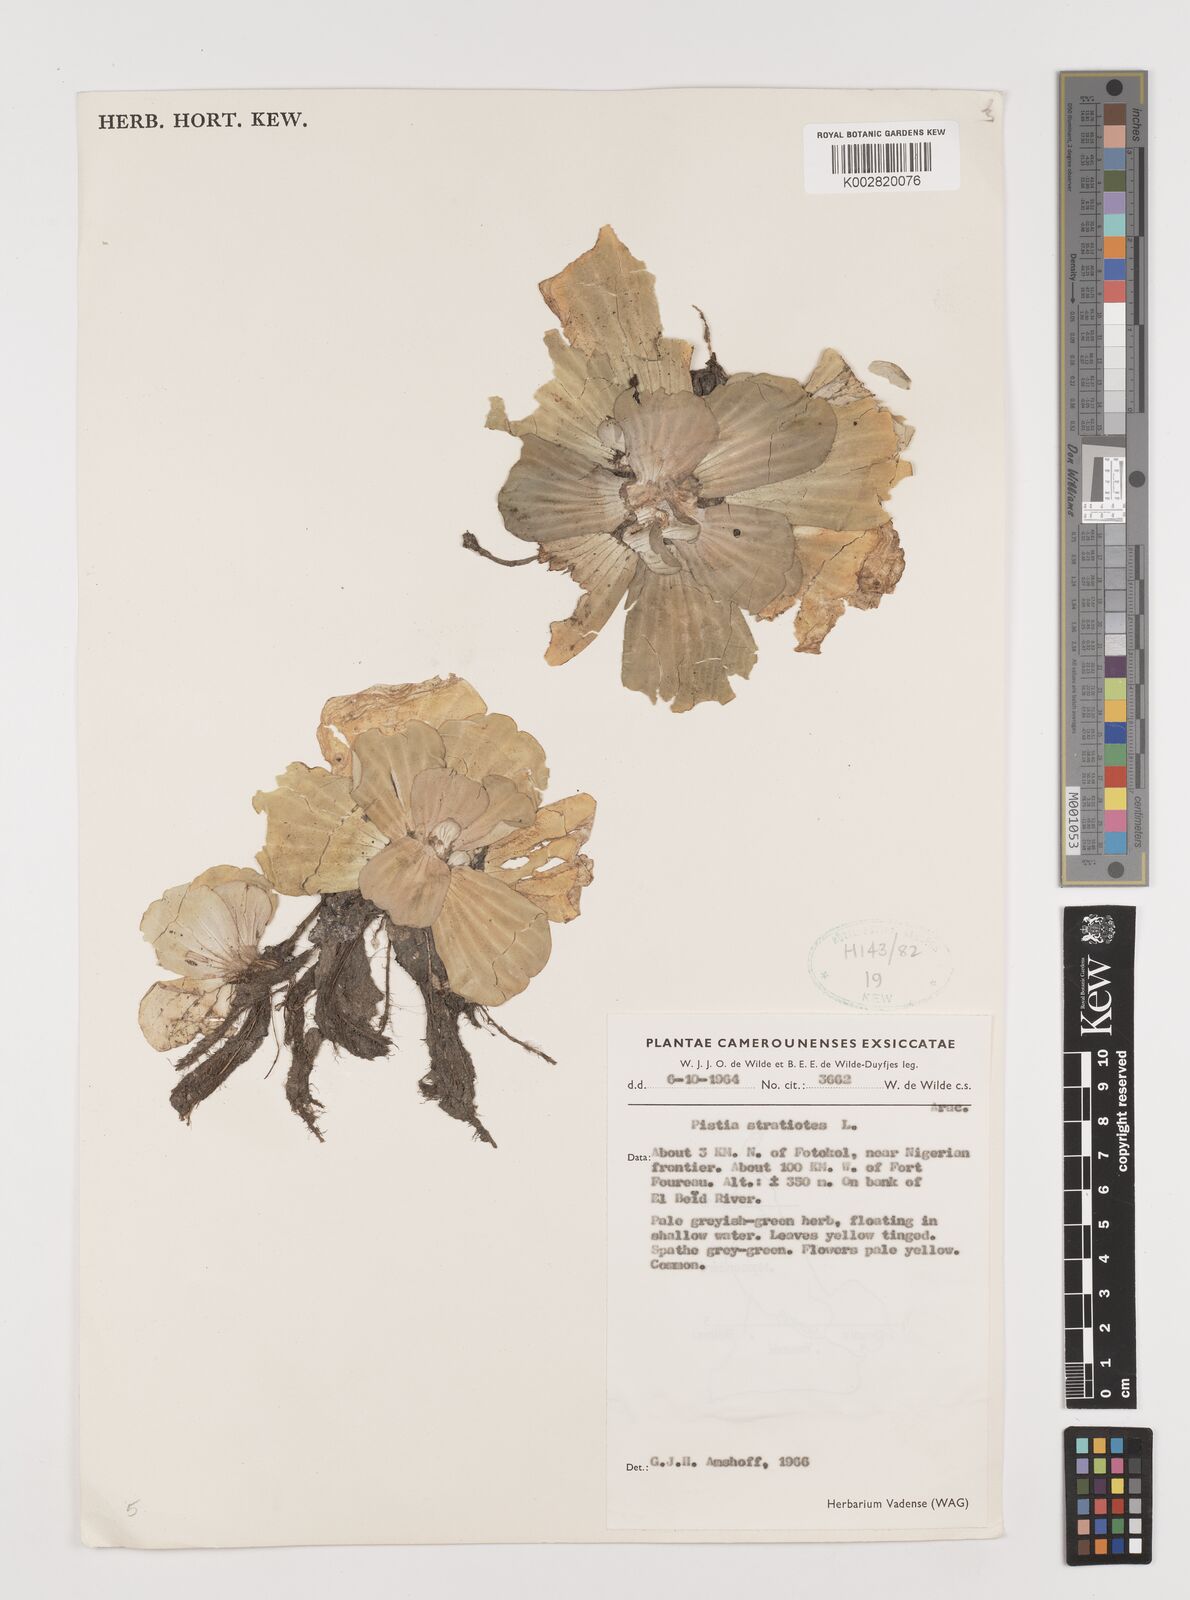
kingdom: Plantae
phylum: Tracheophyta
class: Liliopsida
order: Alismatales
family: Araceae
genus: Pistia
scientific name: Pistia stratiotes
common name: Water lettuce
